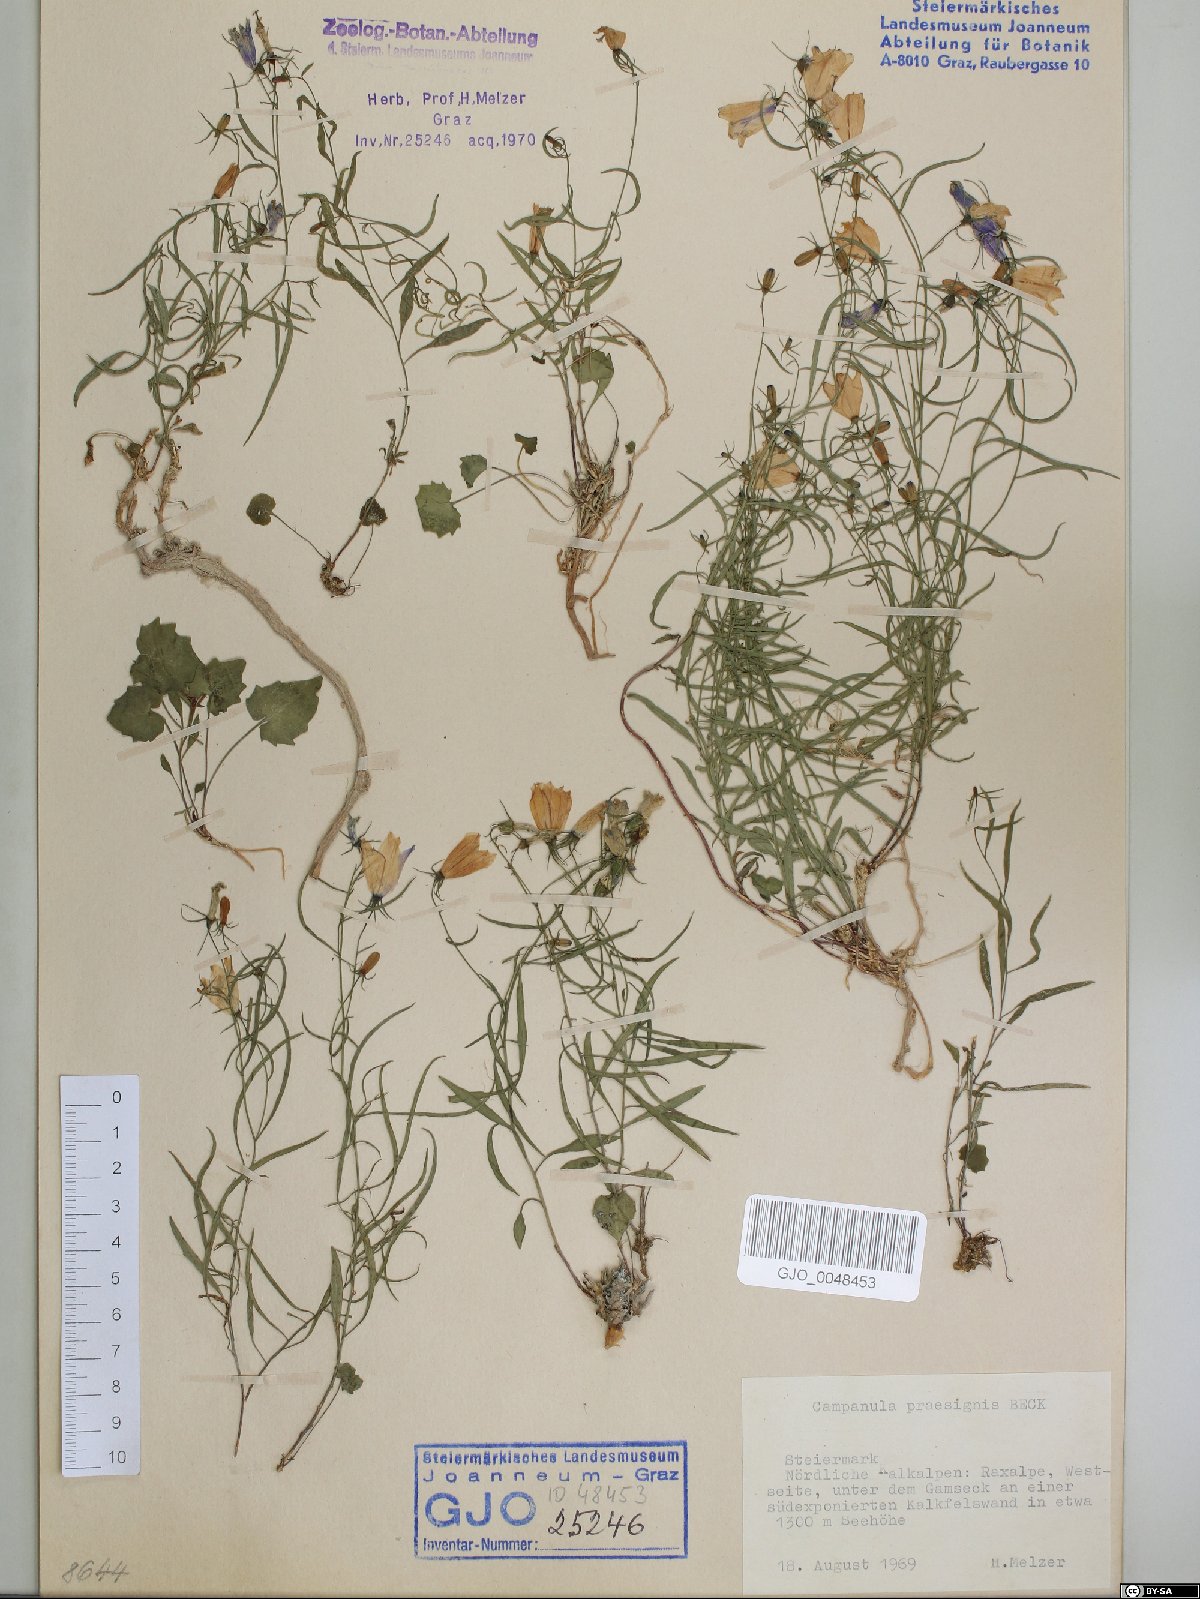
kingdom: Plantae
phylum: Tracheophyta
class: Magnoliopsida
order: Asterales
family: Campanulaceae
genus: Campanula
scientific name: Campanula praesignis
